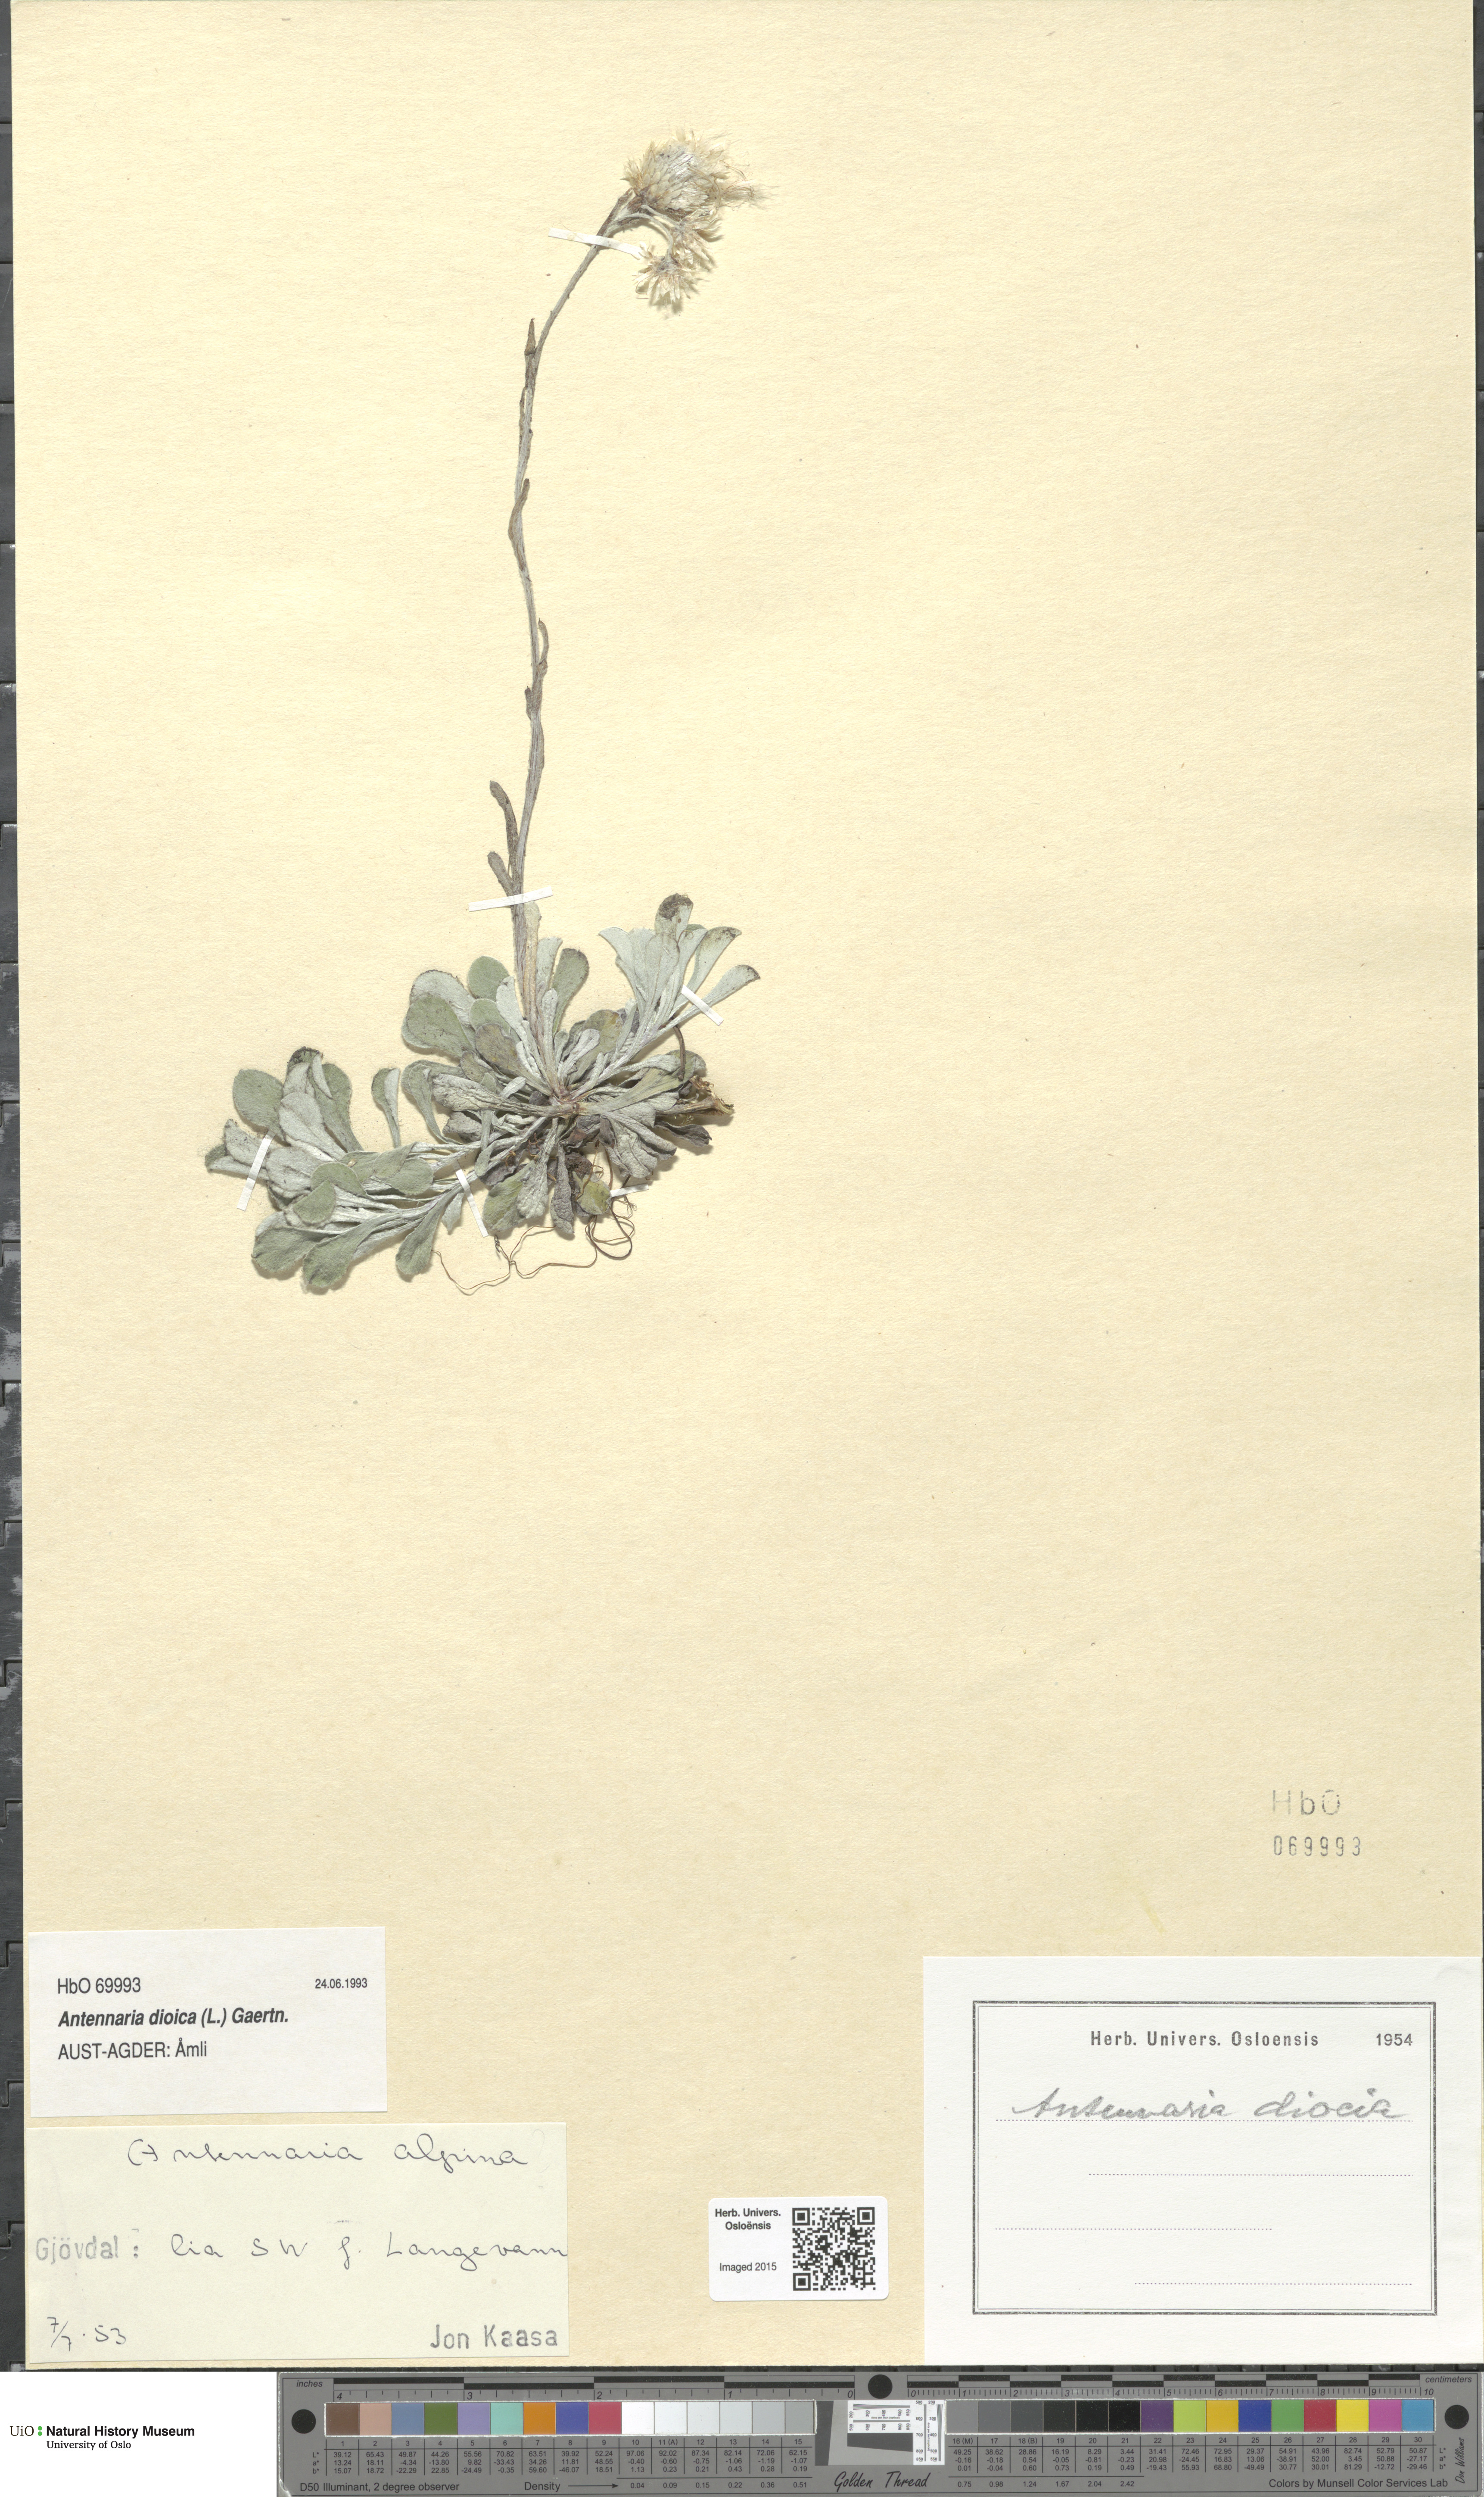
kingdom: Plantae
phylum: Tracheophyta
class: Magnoliopsida
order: Asterales
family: Asteraceae
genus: Antennaria
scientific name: Antennaria dioica
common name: Mountain everlasting
